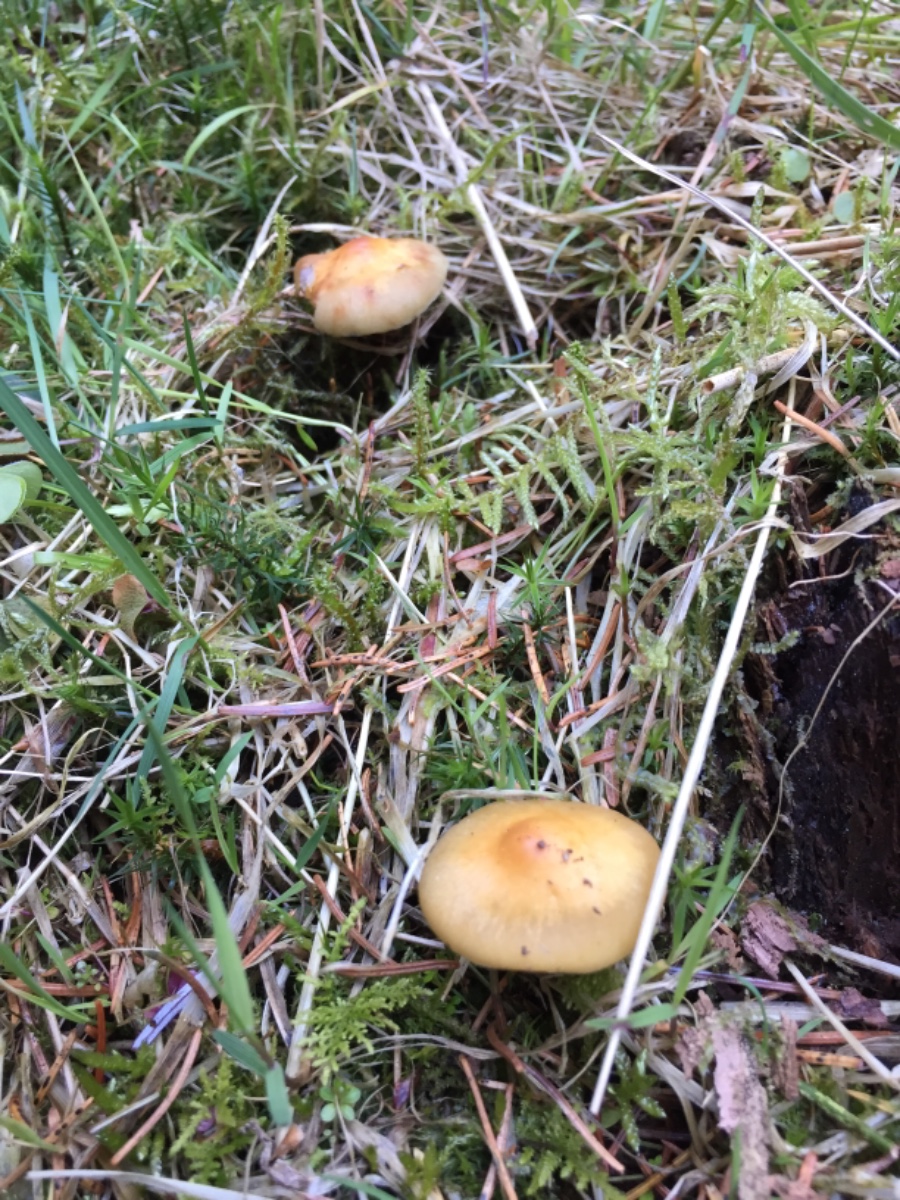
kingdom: Fungi
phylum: Basidiomycota
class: Agaricomycetes
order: Agaricales
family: Strophariaceae
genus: Hypholoma
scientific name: Hypholoma capnoides
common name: gran-svovlhat
